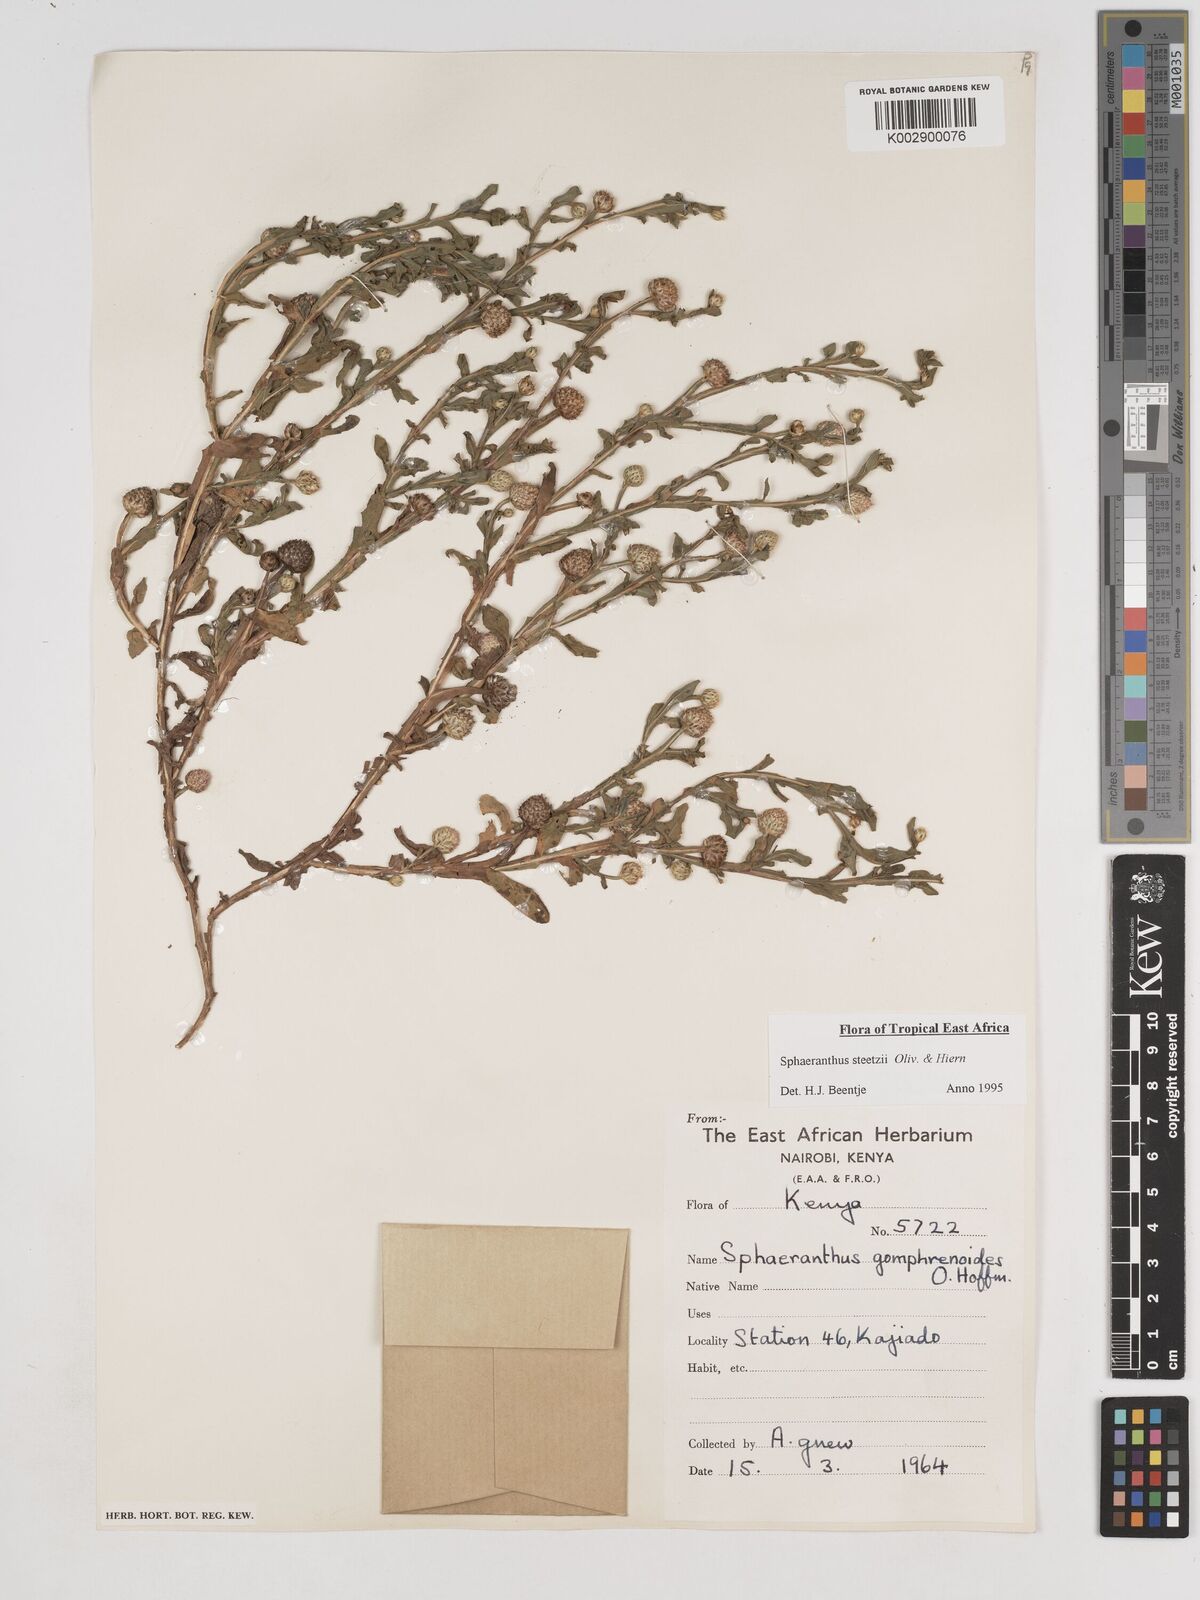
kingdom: Plantae
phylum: Tracheophyta
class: Magnoliopsida
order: Asterales
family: Asteraceae
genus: Sphaeranthus
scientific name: Sphaeranthus steetzii
